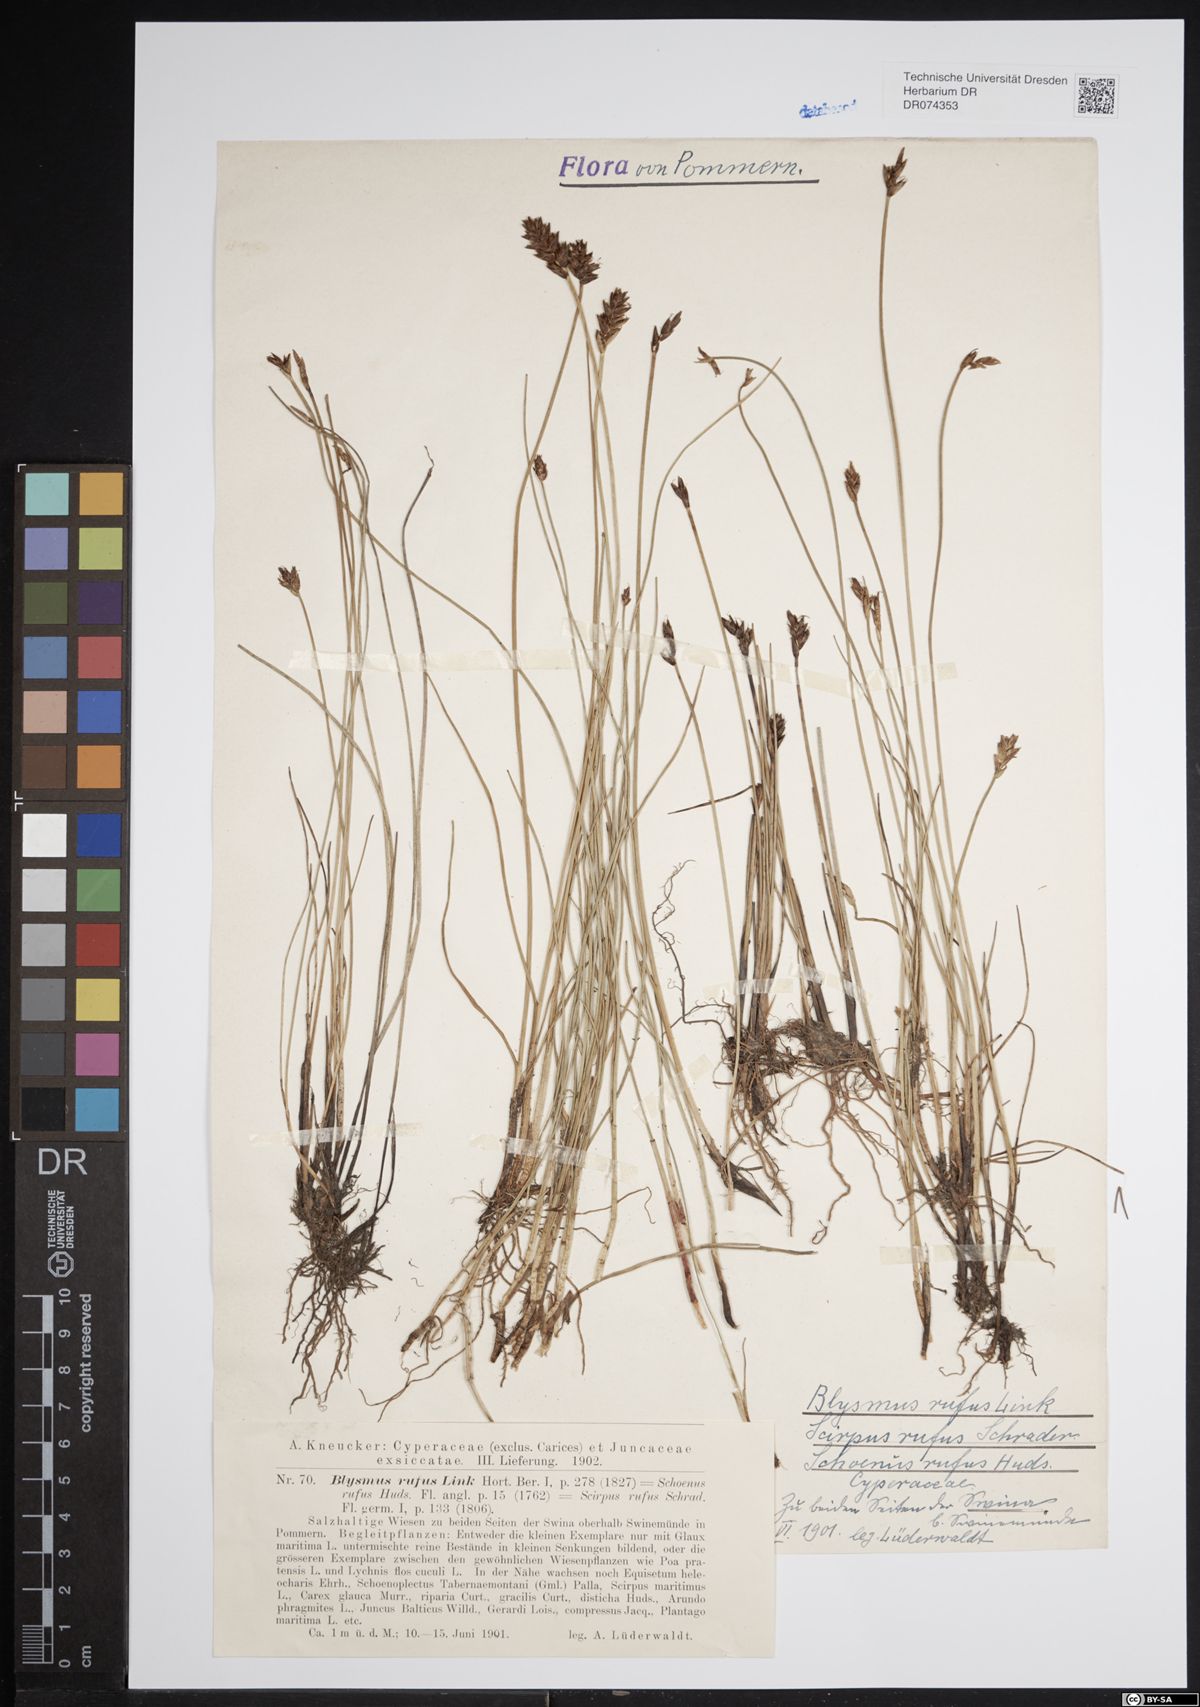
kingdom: Plantae
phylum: Tracheophyta
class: Liliopsida
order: Poales
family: Cyperaceae
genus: Blysmus
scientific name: Blysmus rufus
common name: Saltmarsh flat-sedge
